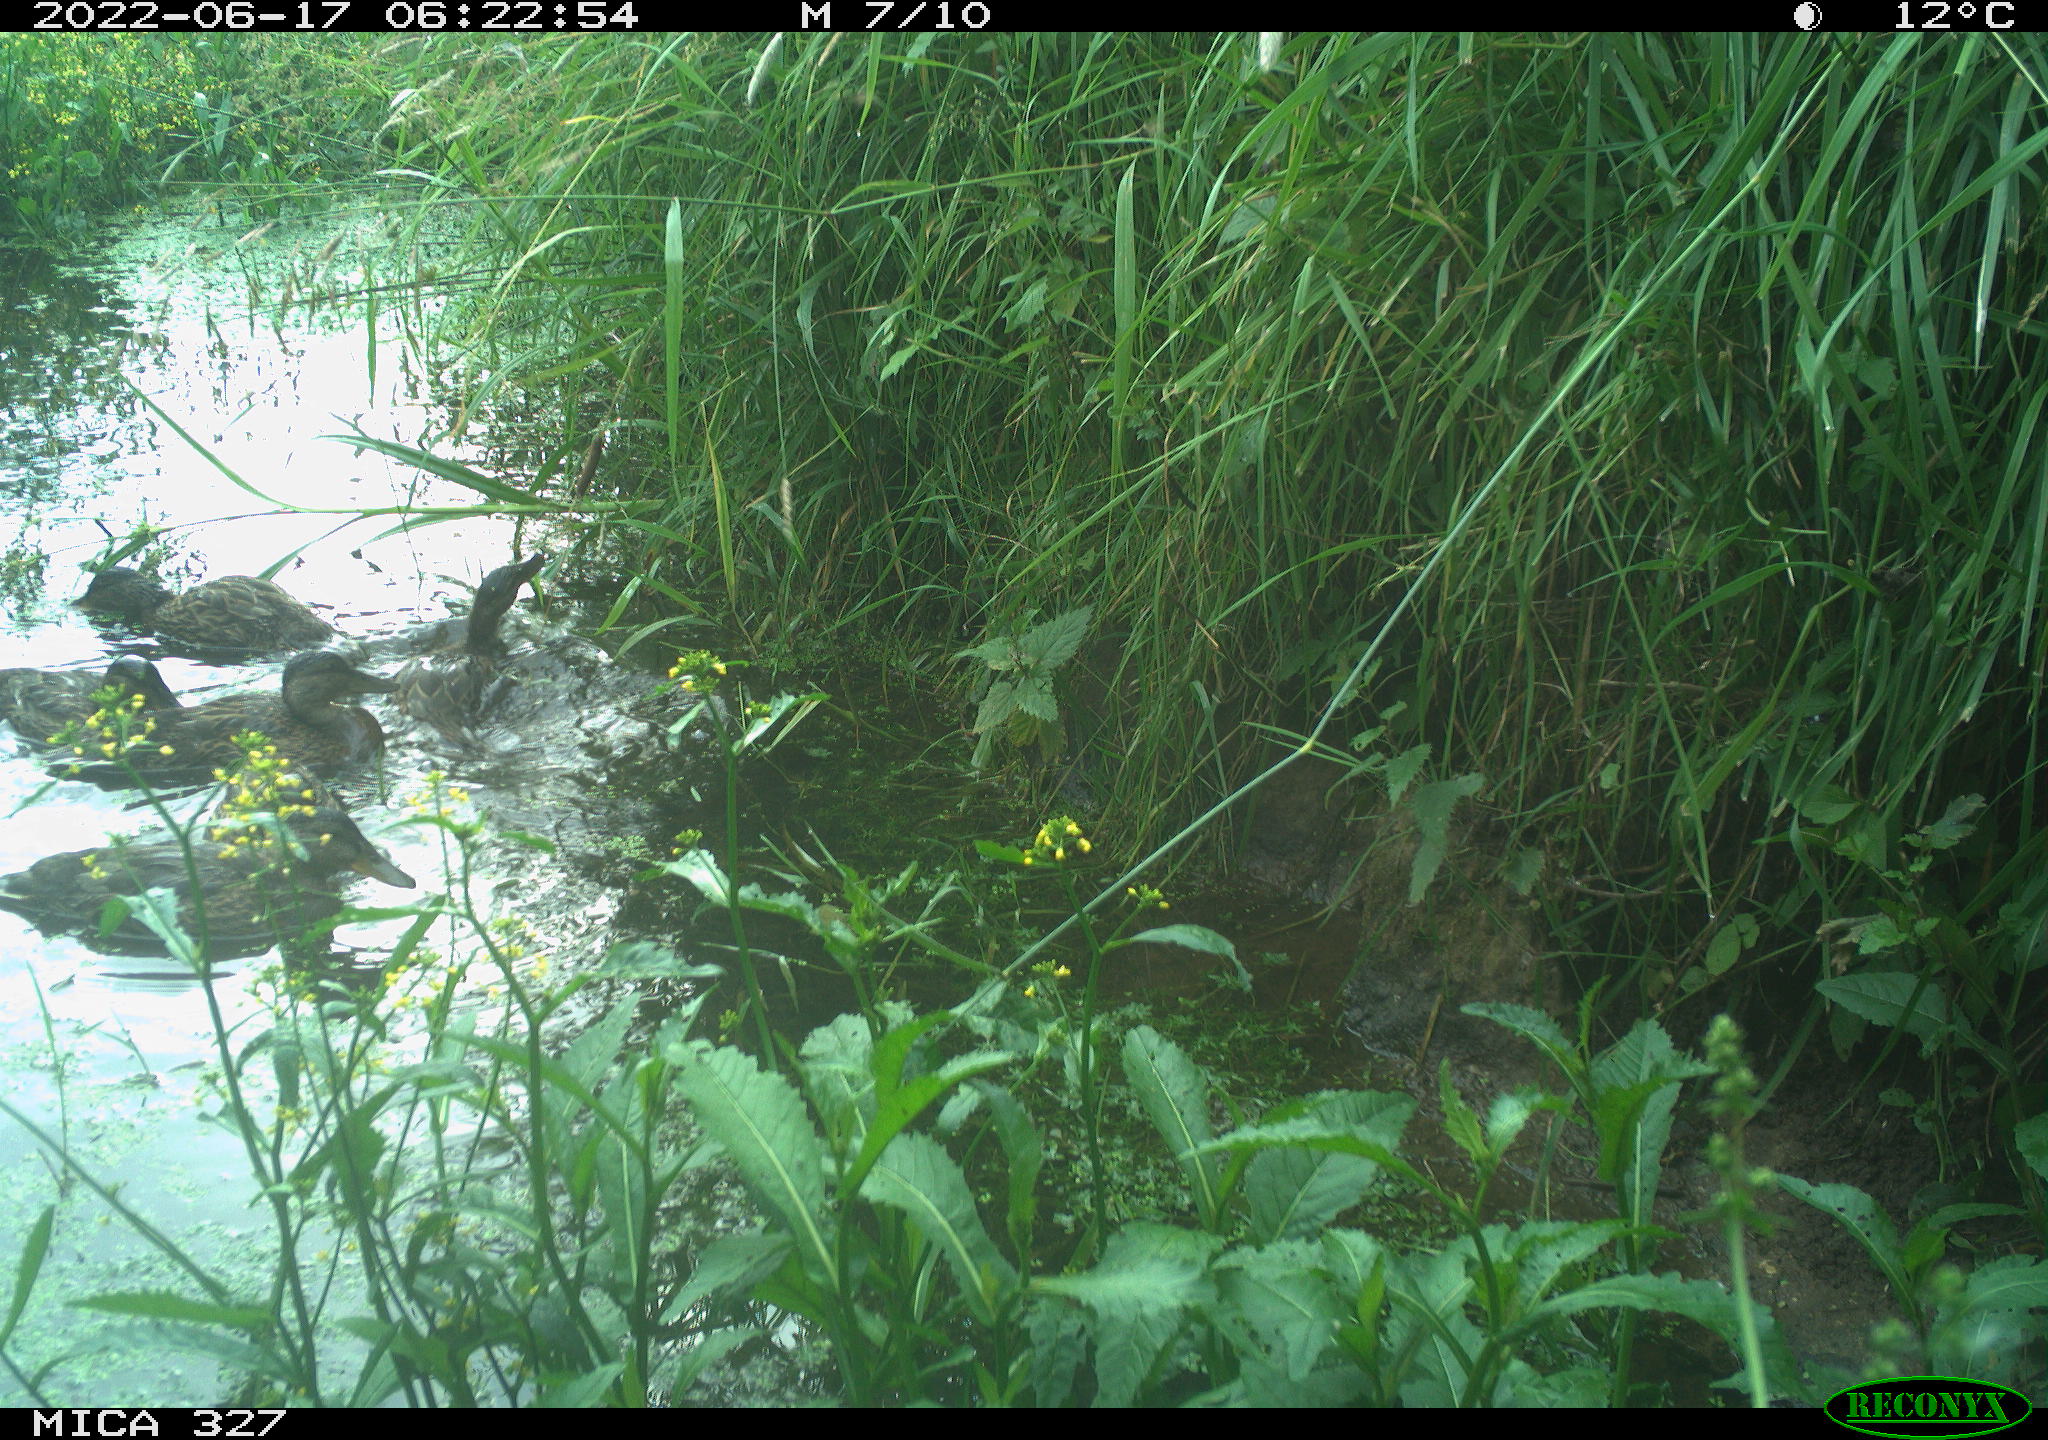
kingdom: Animalia
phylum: Chordata
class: Aves
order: Anseriformes
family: Anatidae
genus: Anas
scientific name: Anas
